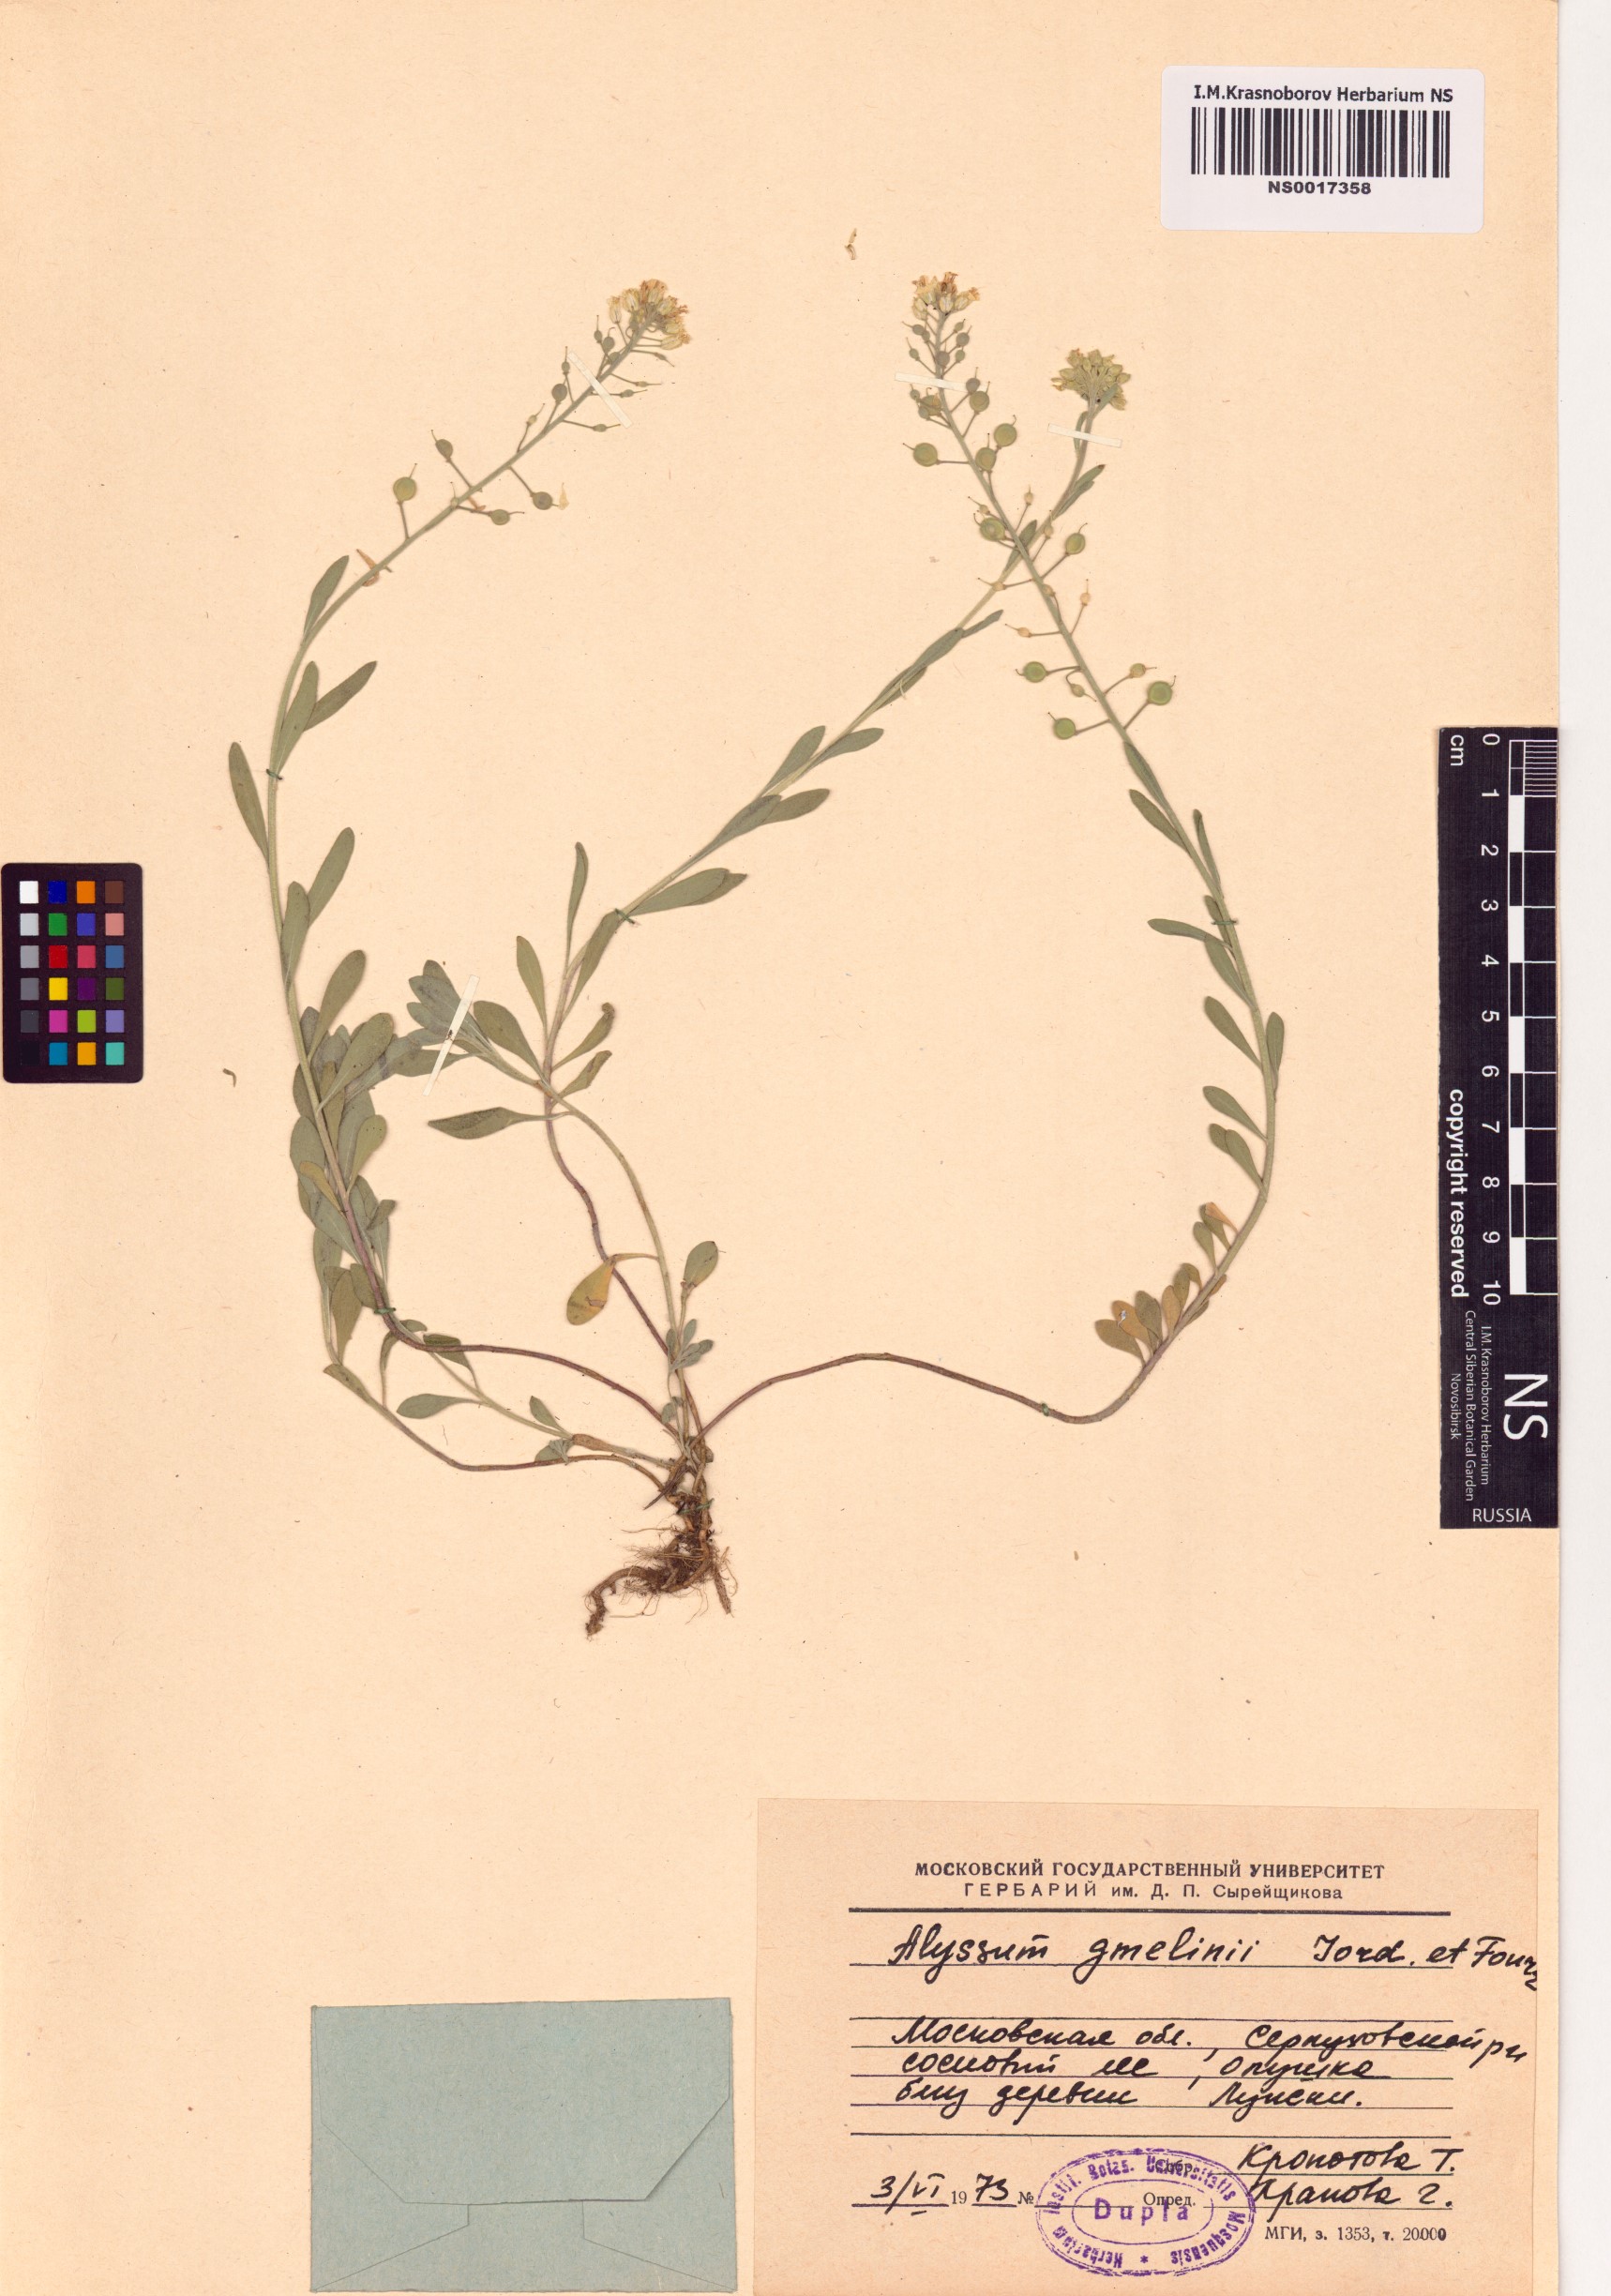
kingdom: Plantae
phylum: Tracheophyta
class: Magnoliopsida
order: Brassicales
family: Brassicaceae
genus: Alyssum
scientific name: Alyssum gmelinii
